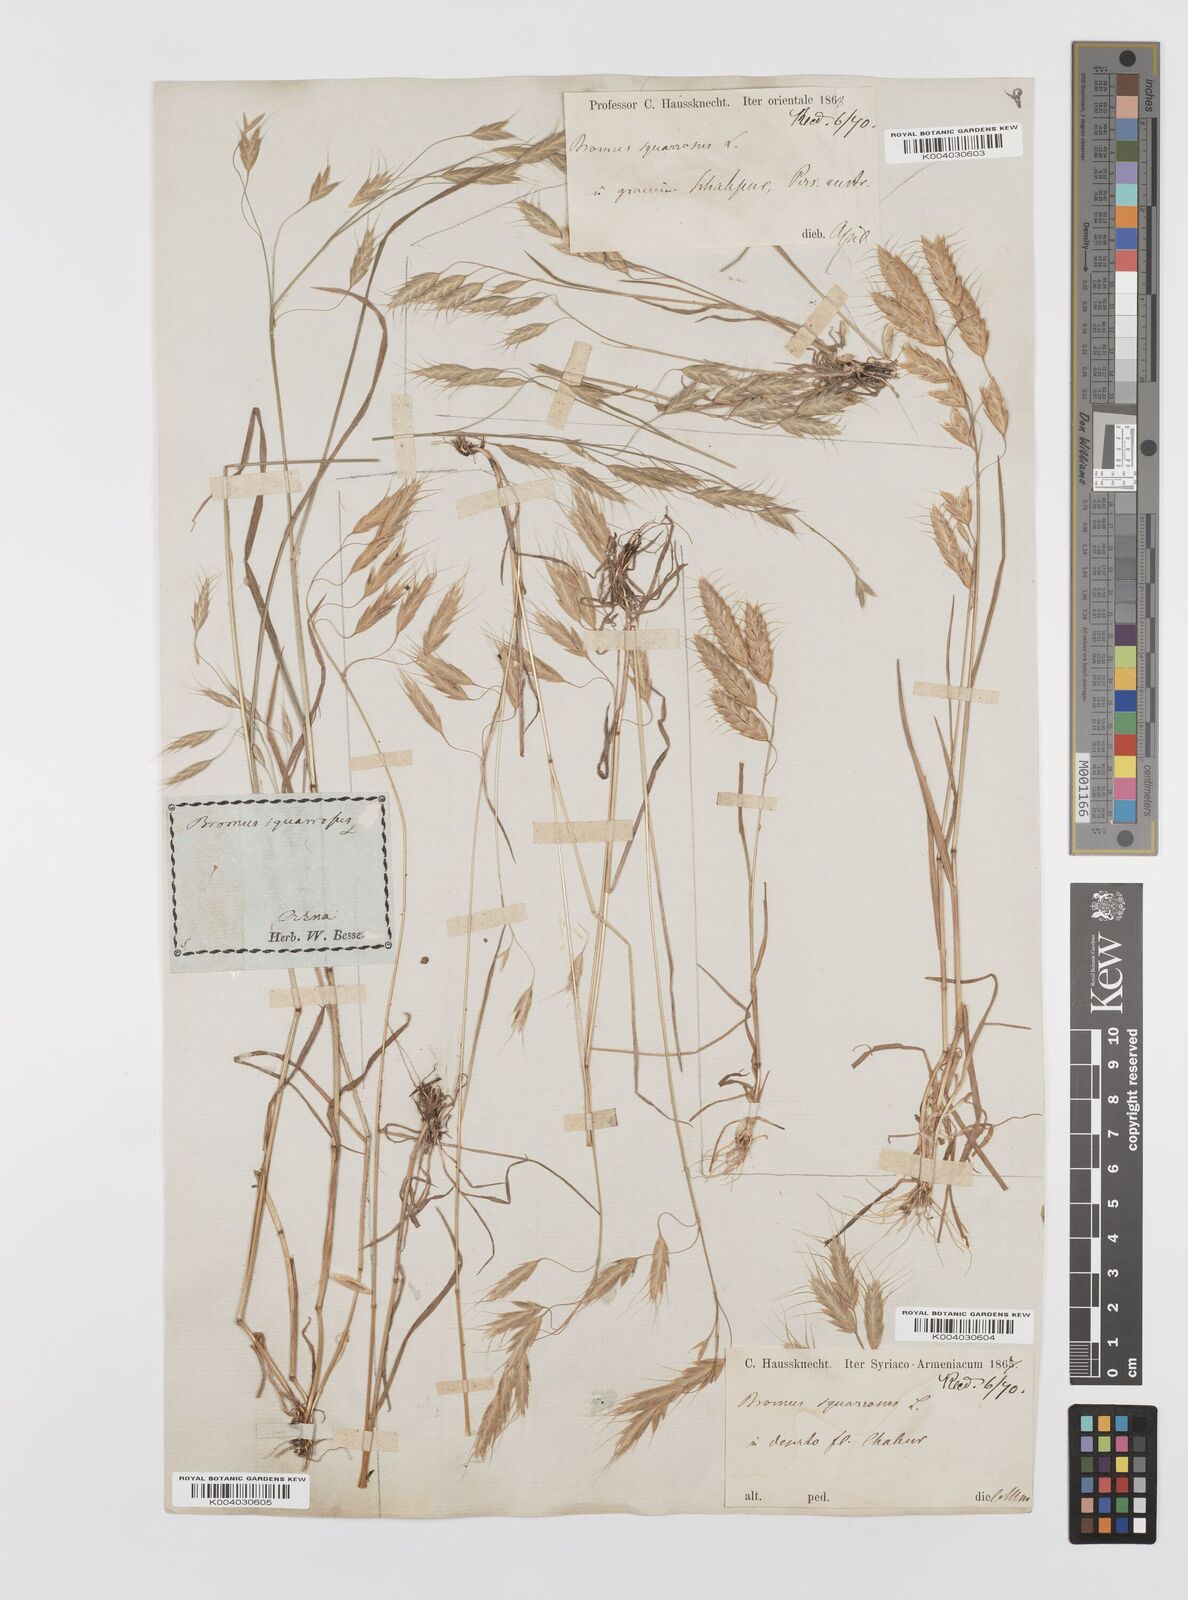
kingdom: Plantae
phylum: Tracheophyta
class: Liliopsida
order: Poales
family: Poaceae
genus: Bromus
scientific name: Bromus squarrosus
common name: Corn brome
